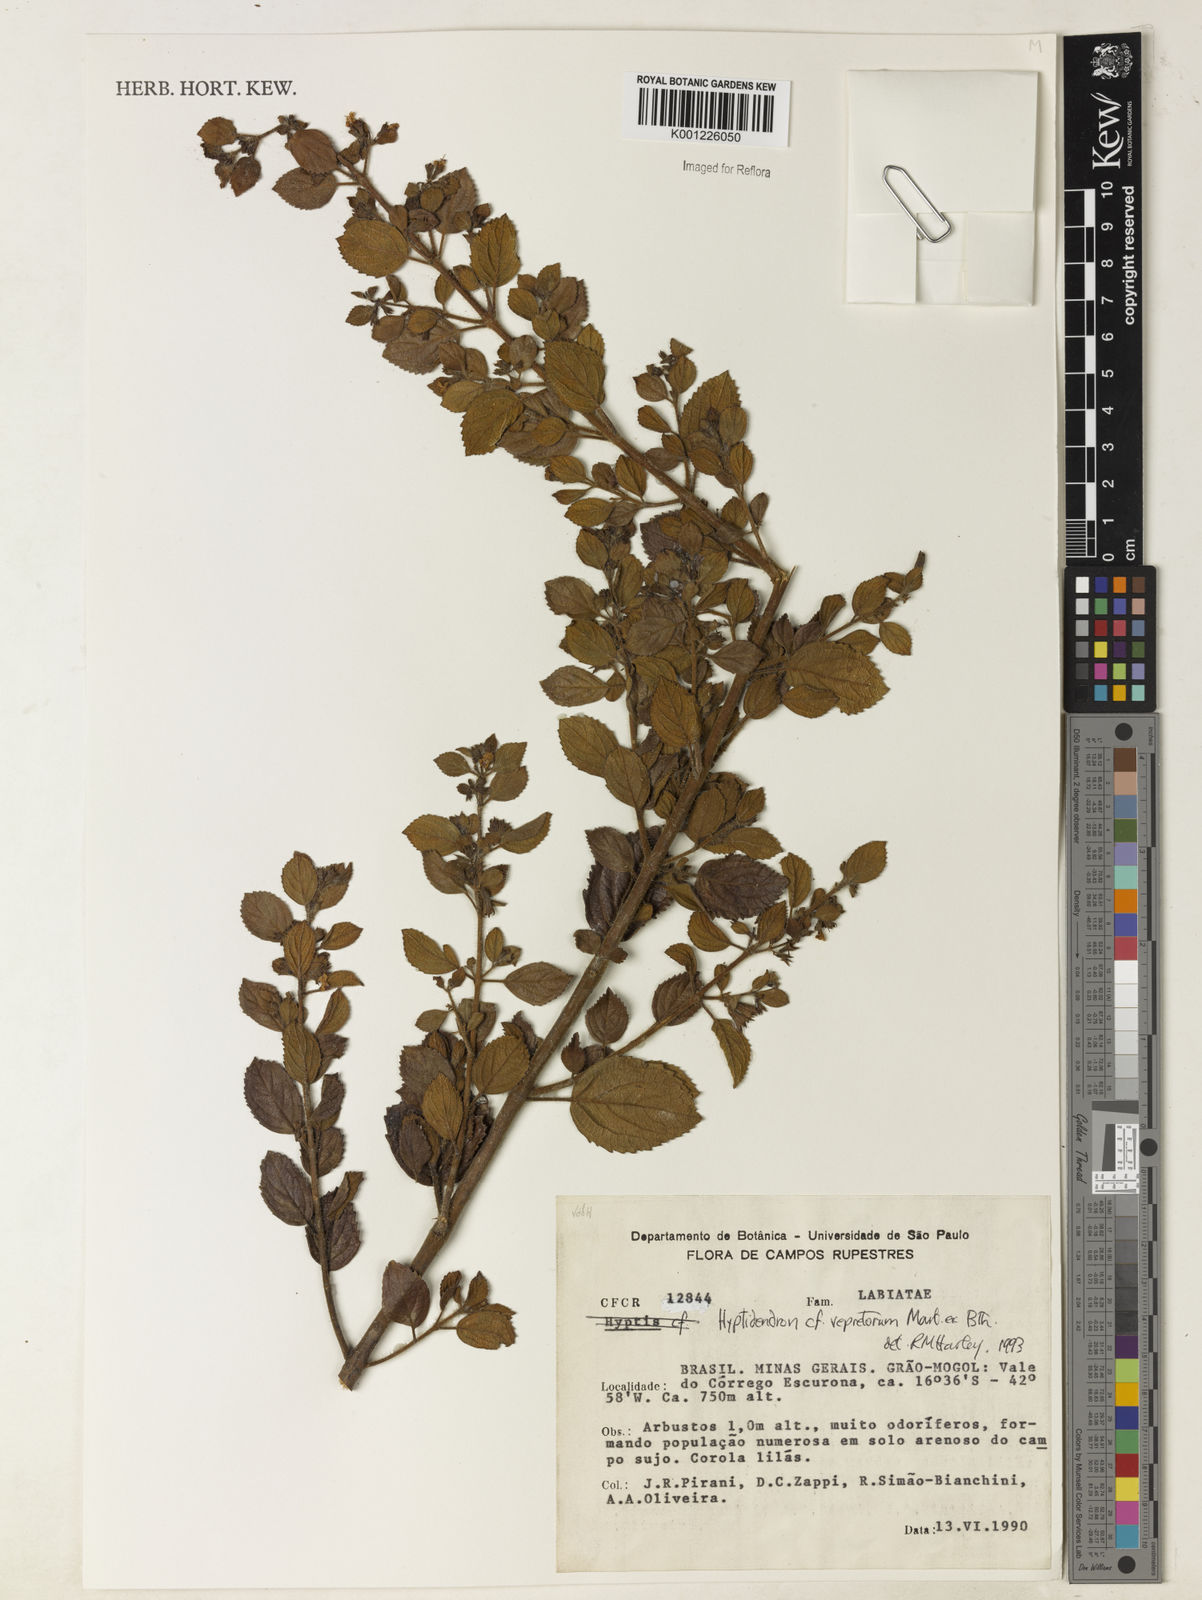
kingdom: Plantae
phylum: Tracheophyta
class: Magnoliopsida
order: Lamiales
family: Lamiaceae
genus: Hyptidendron
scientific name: Hyptidendron vepretorum
